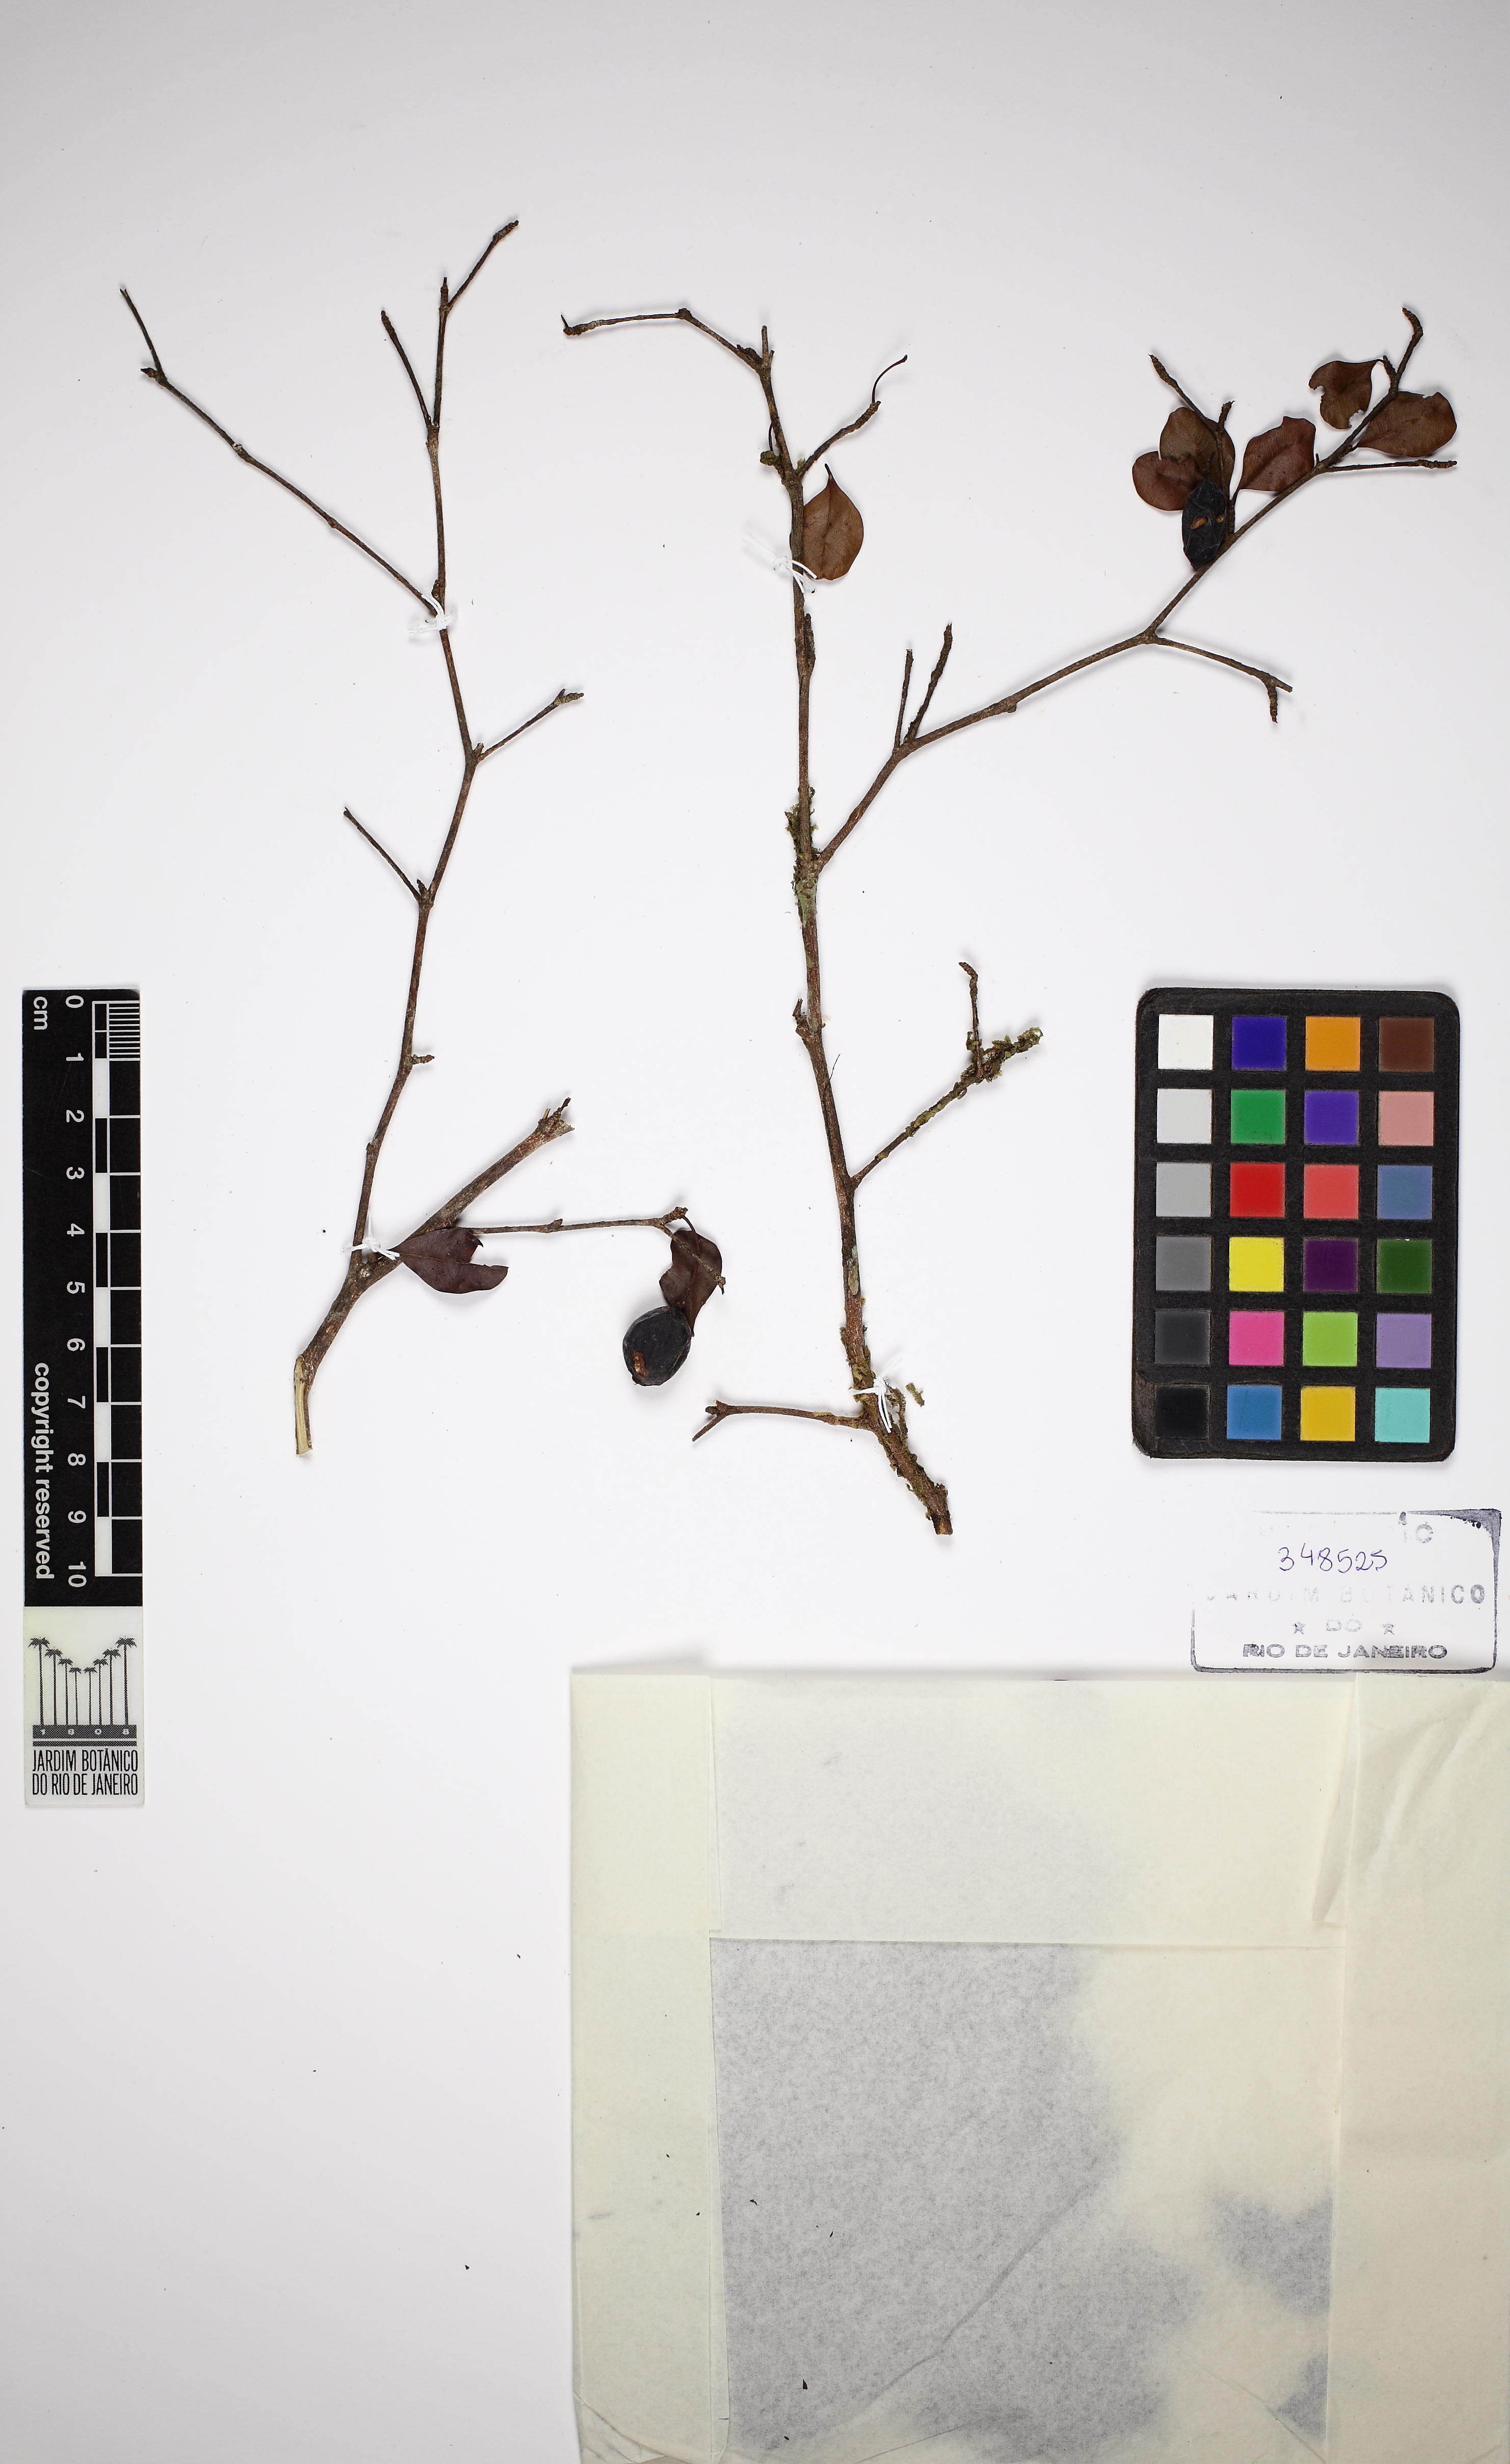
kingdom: Plantae
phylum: Tracheophyta
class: Magnoliopsida
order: Myrtales
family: Combretaceae
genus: Terminalia
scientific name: Terminalia parvifolia
